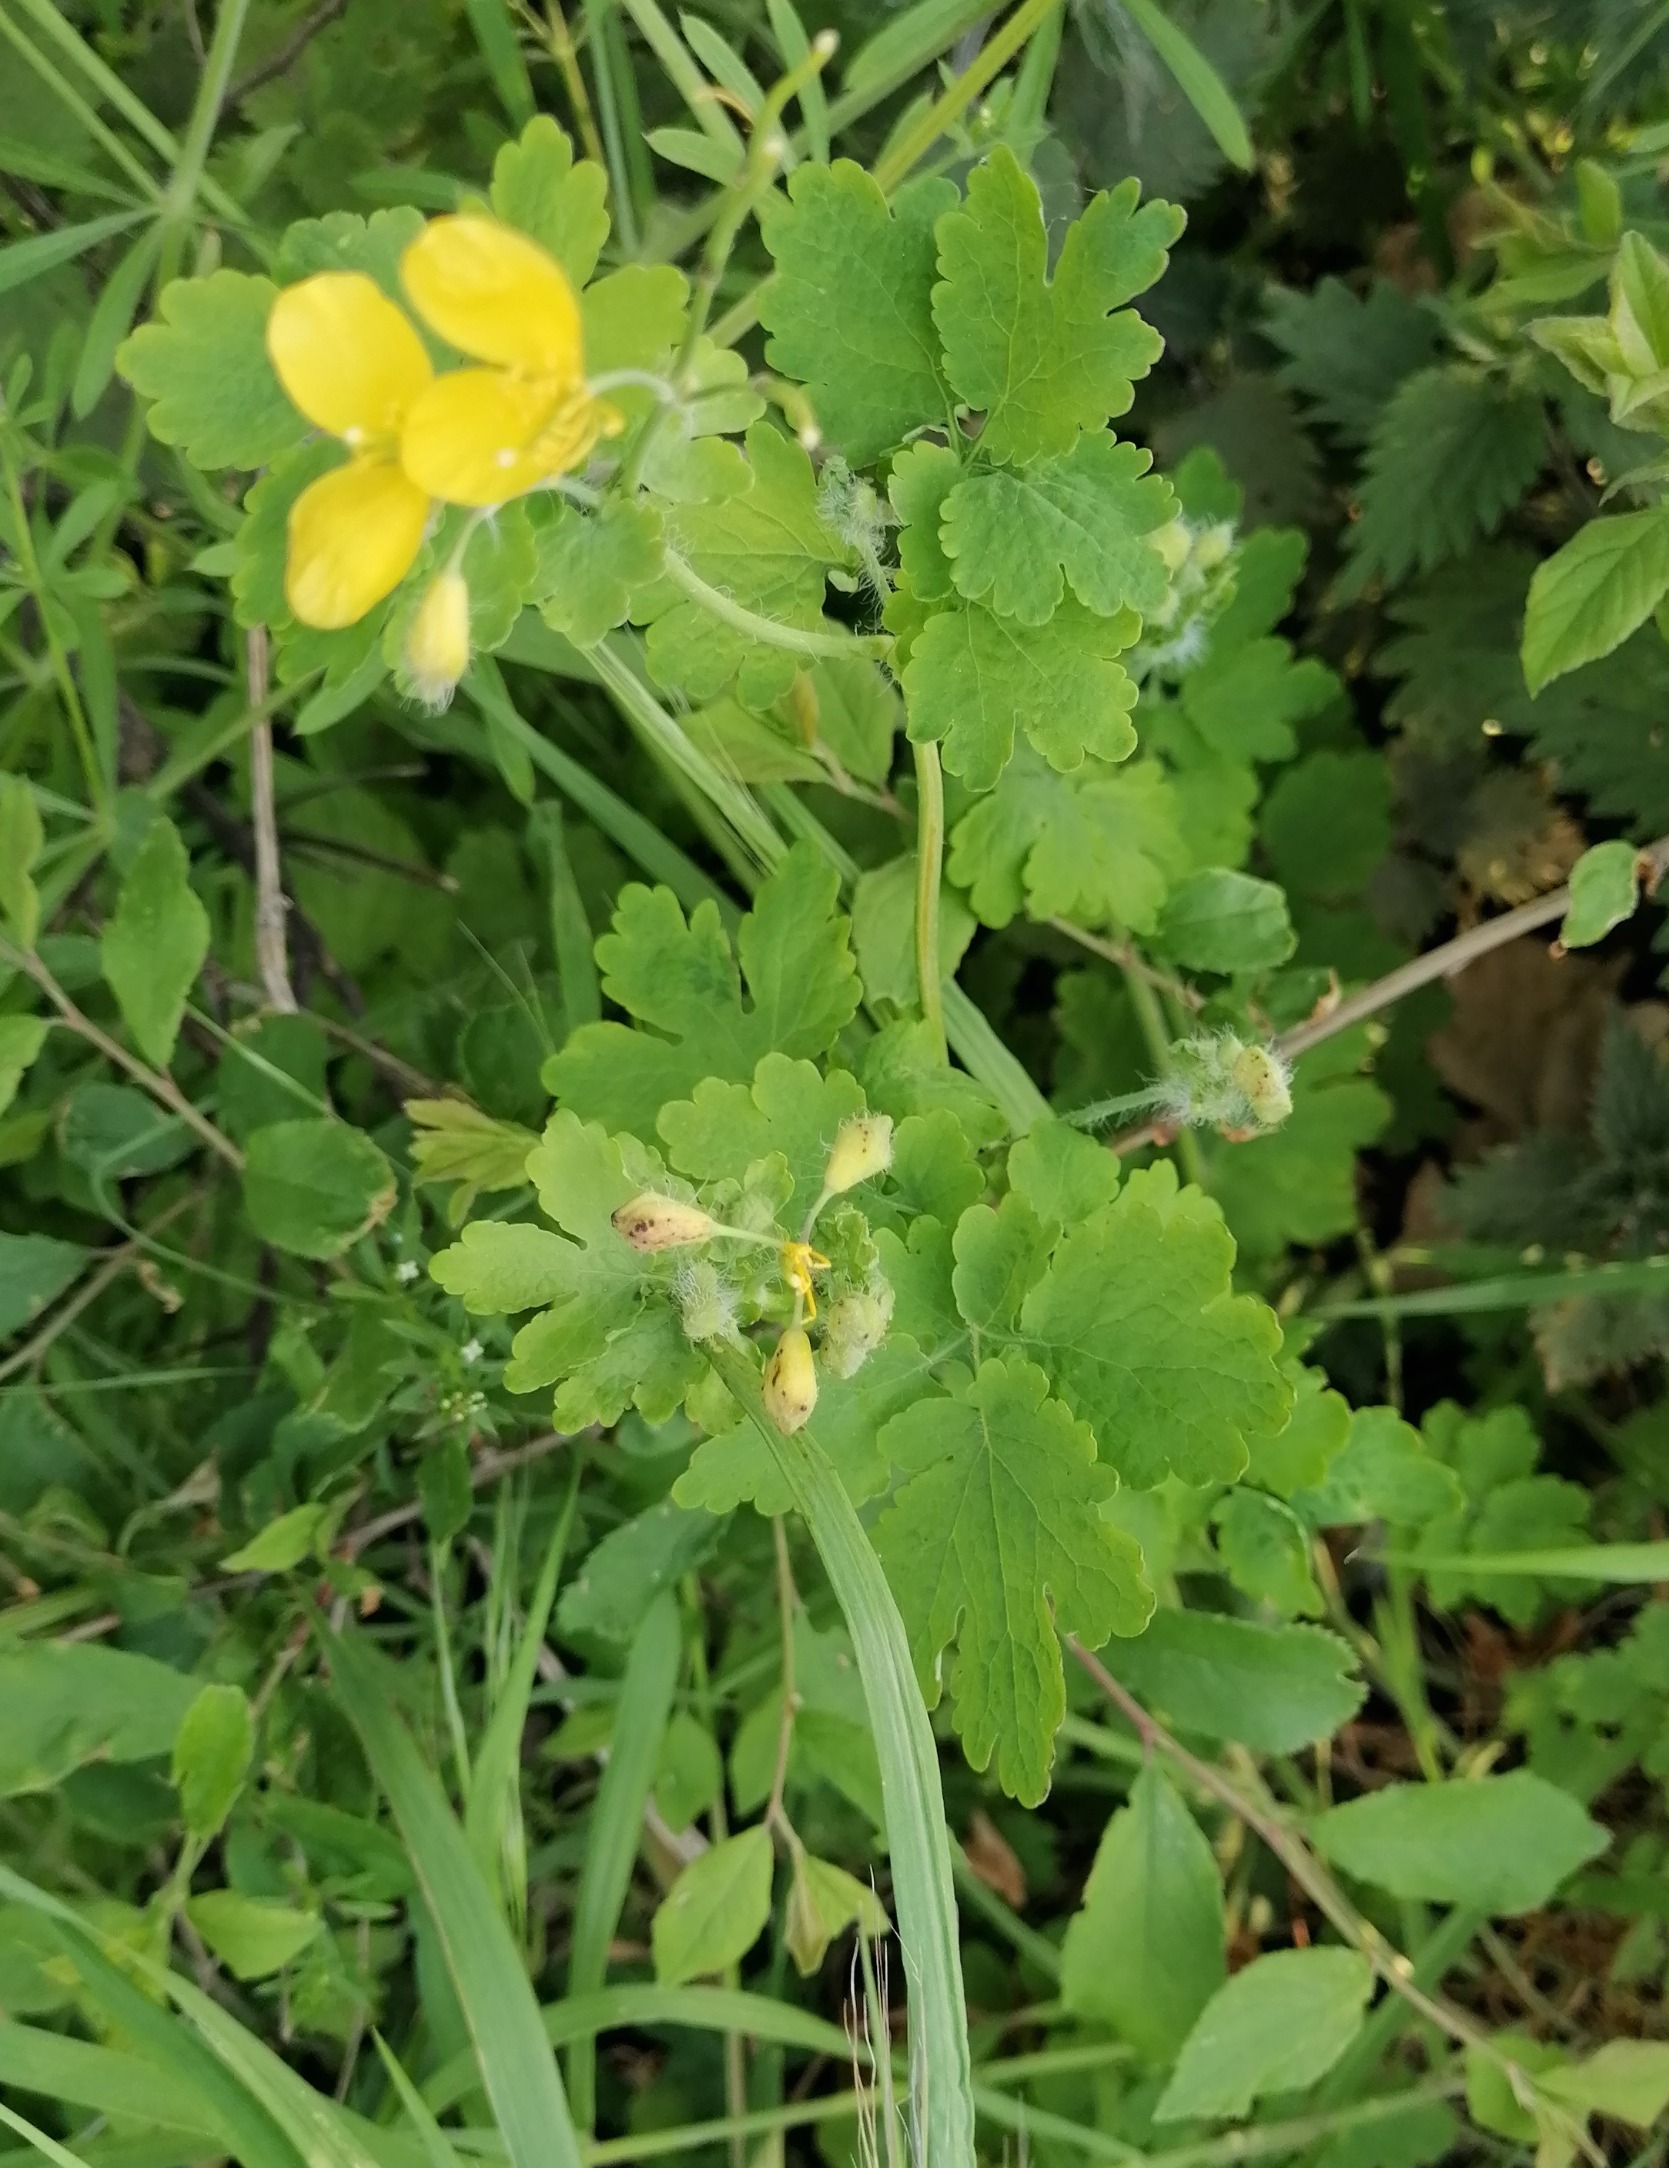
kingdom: Plantae
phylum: Tracheophyta
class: Magnoliopsida
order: Ranunculales
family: Papaveraceae
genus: Chelidonium
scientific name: Chelidonium majus
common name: Svaleurt
